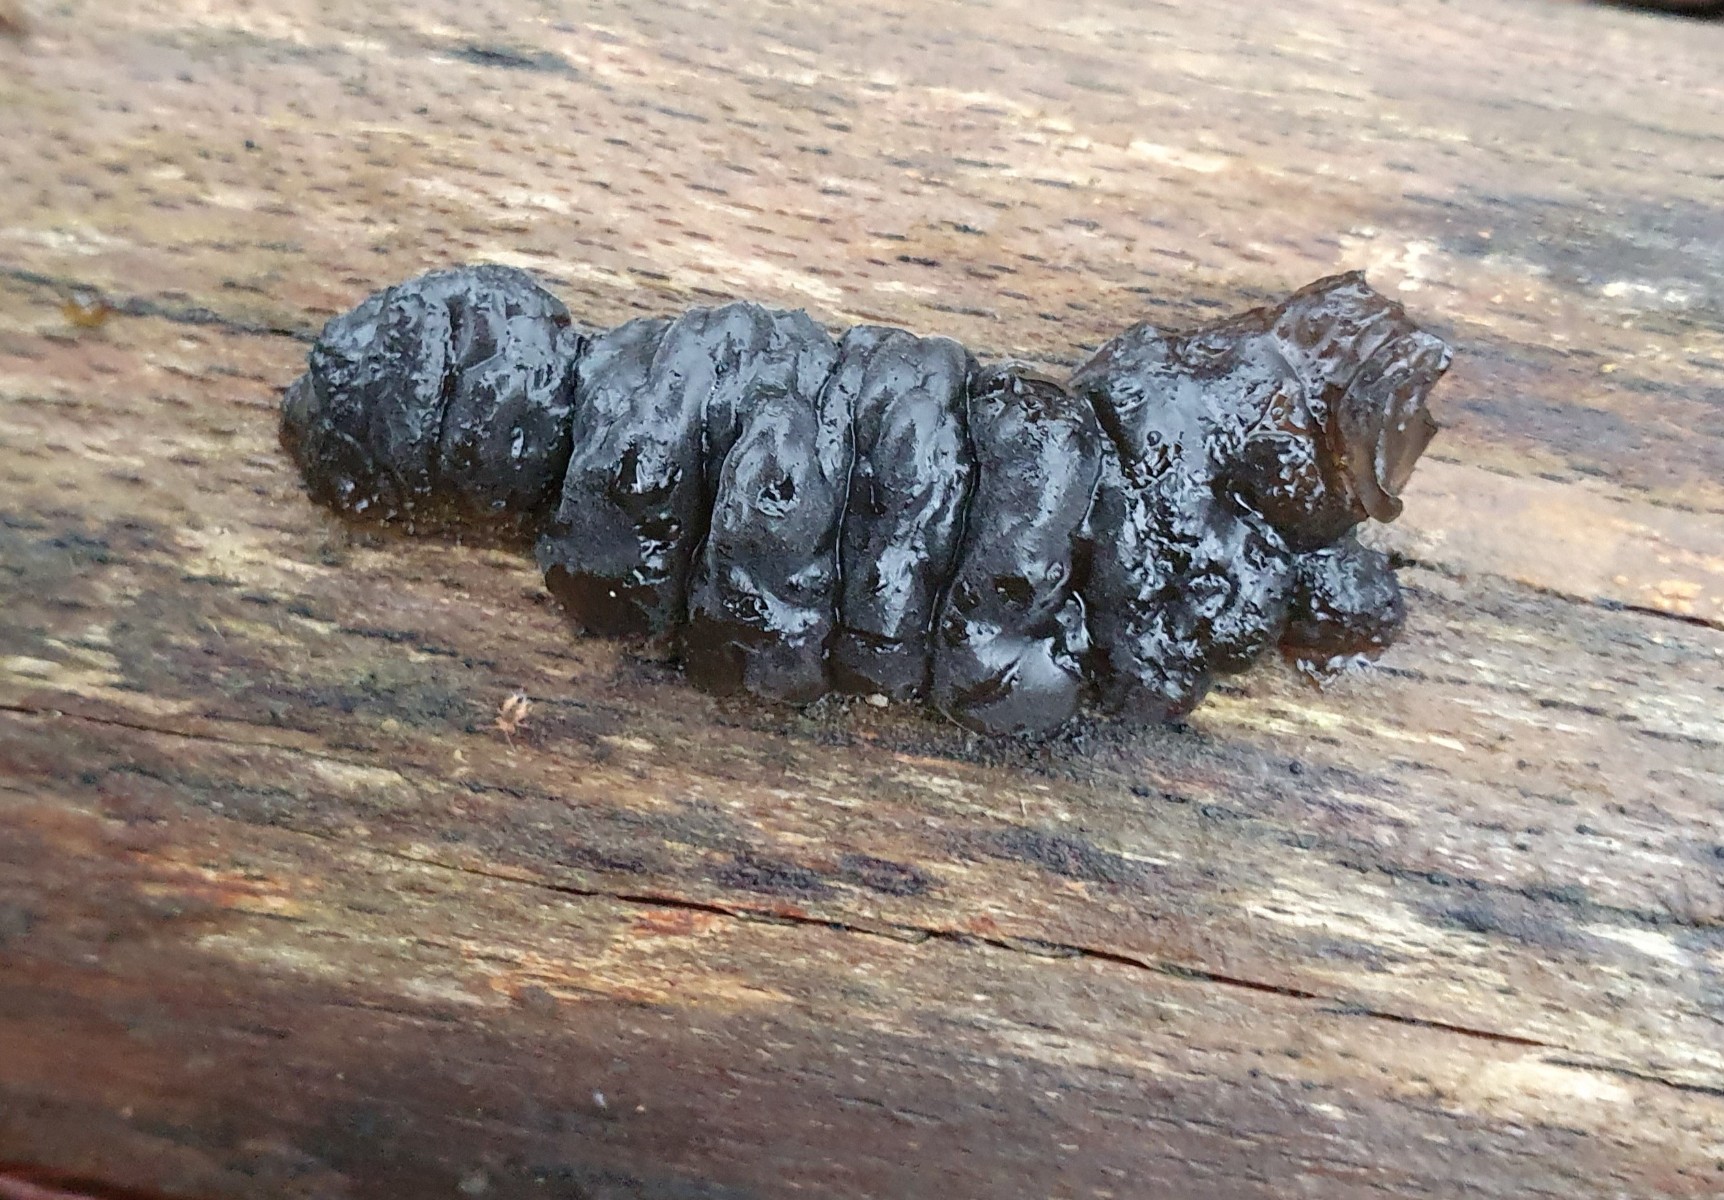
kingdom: Fungi
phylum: Basidiomycota
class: Agaricomycetes
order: Auriculariales
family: Auriculariaceae
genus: Exidia
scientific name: Exidia nigricans
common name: almindelig bævretop
